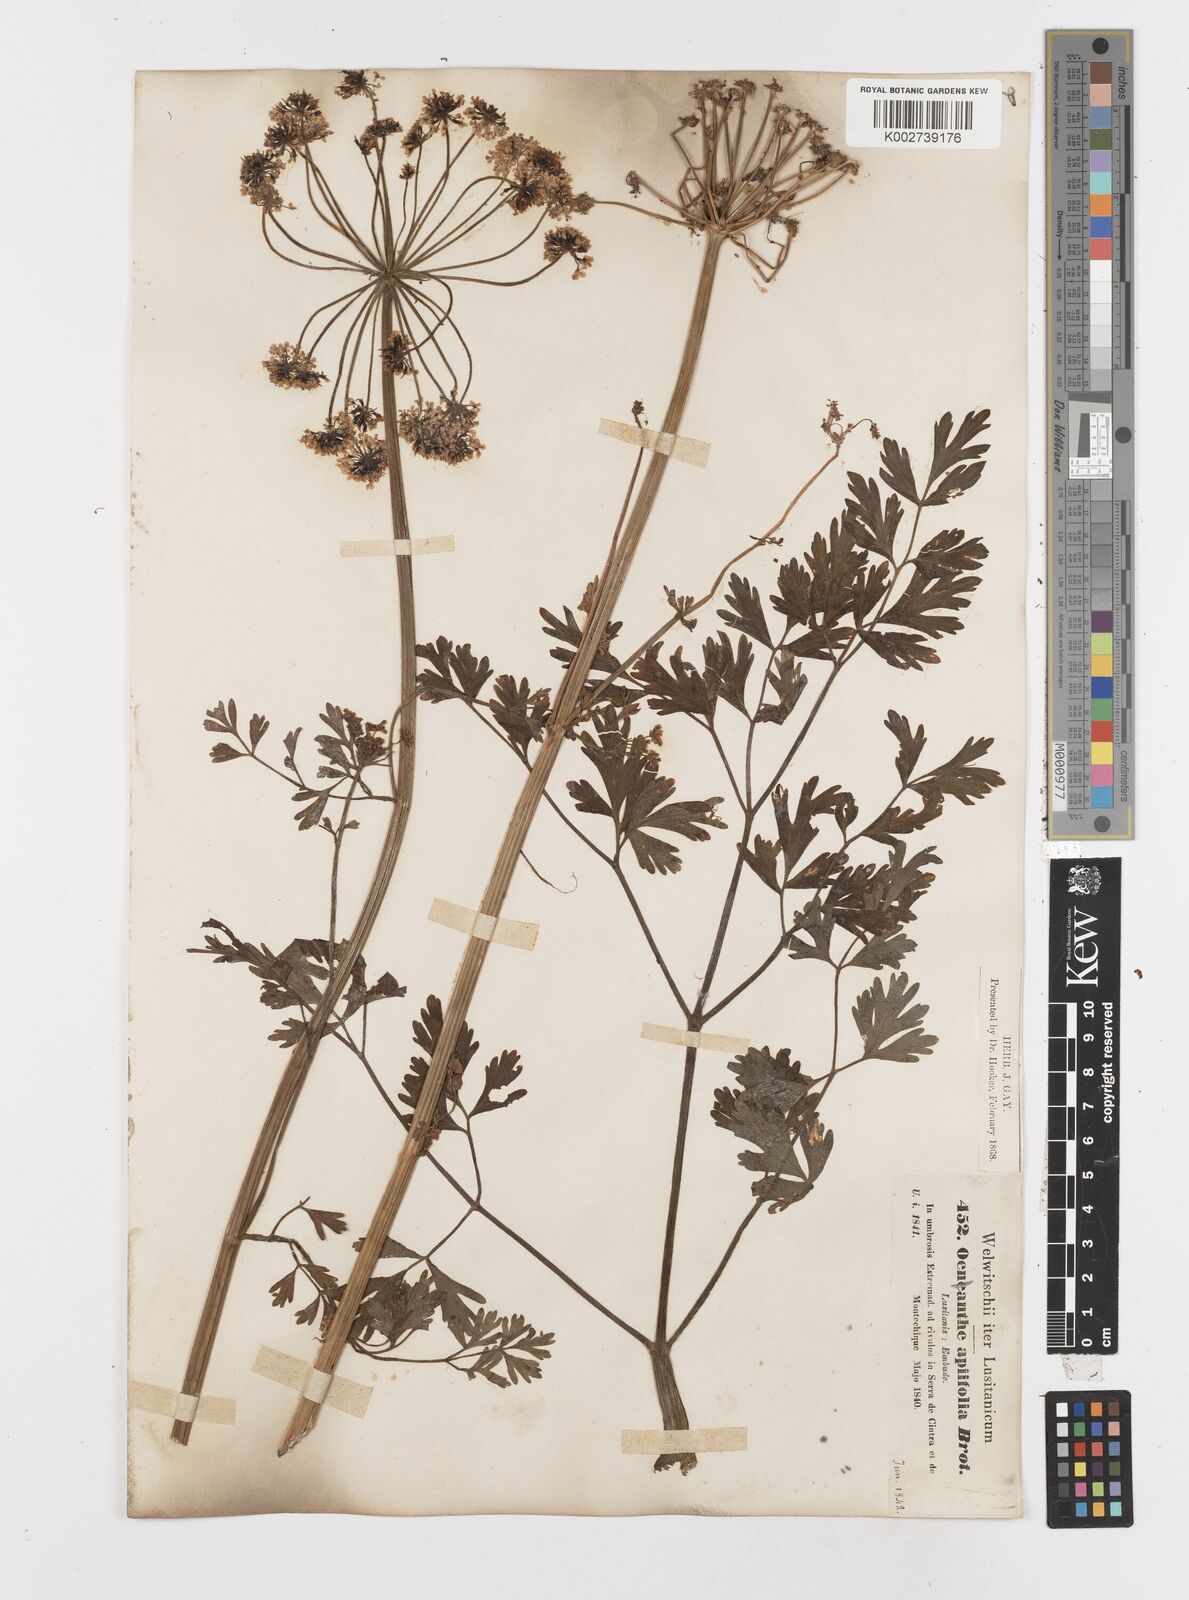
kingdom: Plantae
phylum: Tracheophyta
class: Magnoliopsida
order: Apiales
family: Apiaceae
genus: Oenanthe
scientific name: Oenanthe crocata
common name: Hemlock water-dropwort
